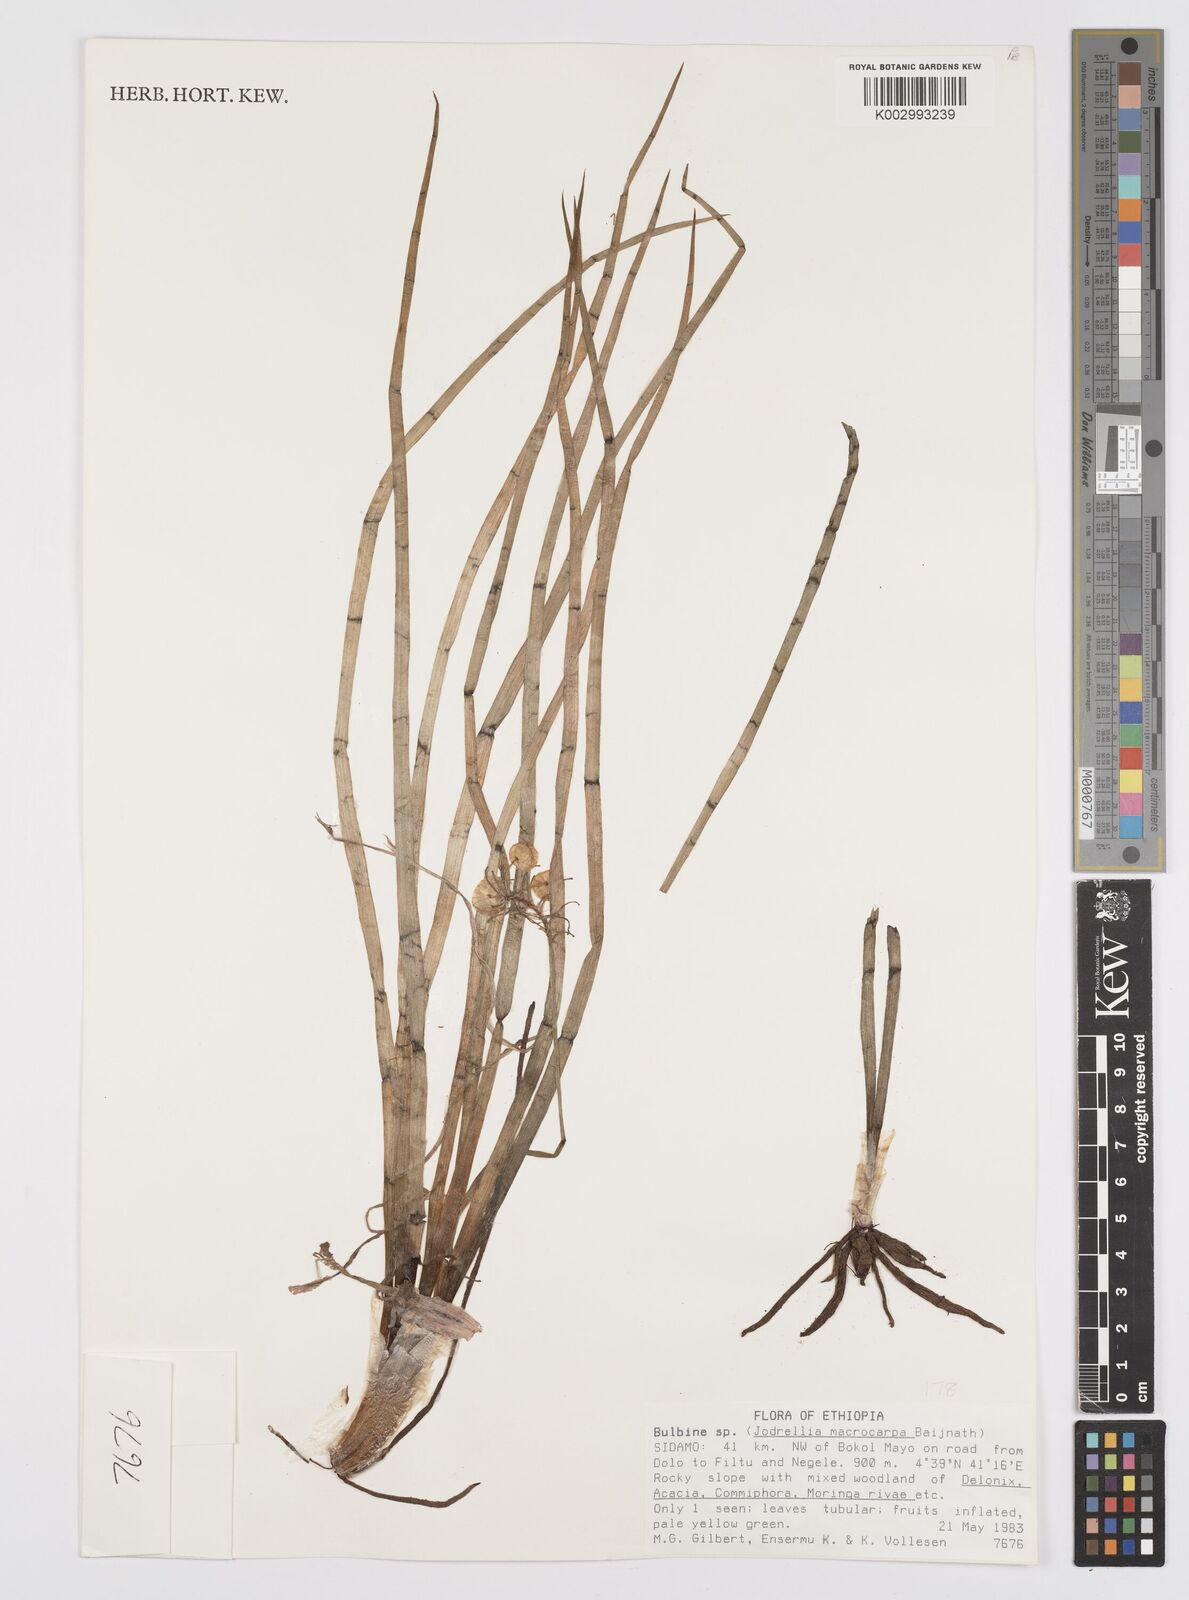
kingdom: Plantae
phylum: Tracheophyta
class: Liliopsida
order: Asparagales
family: Asphodelaceae
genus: Bulbine
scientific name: Bulbine macrocarpa
